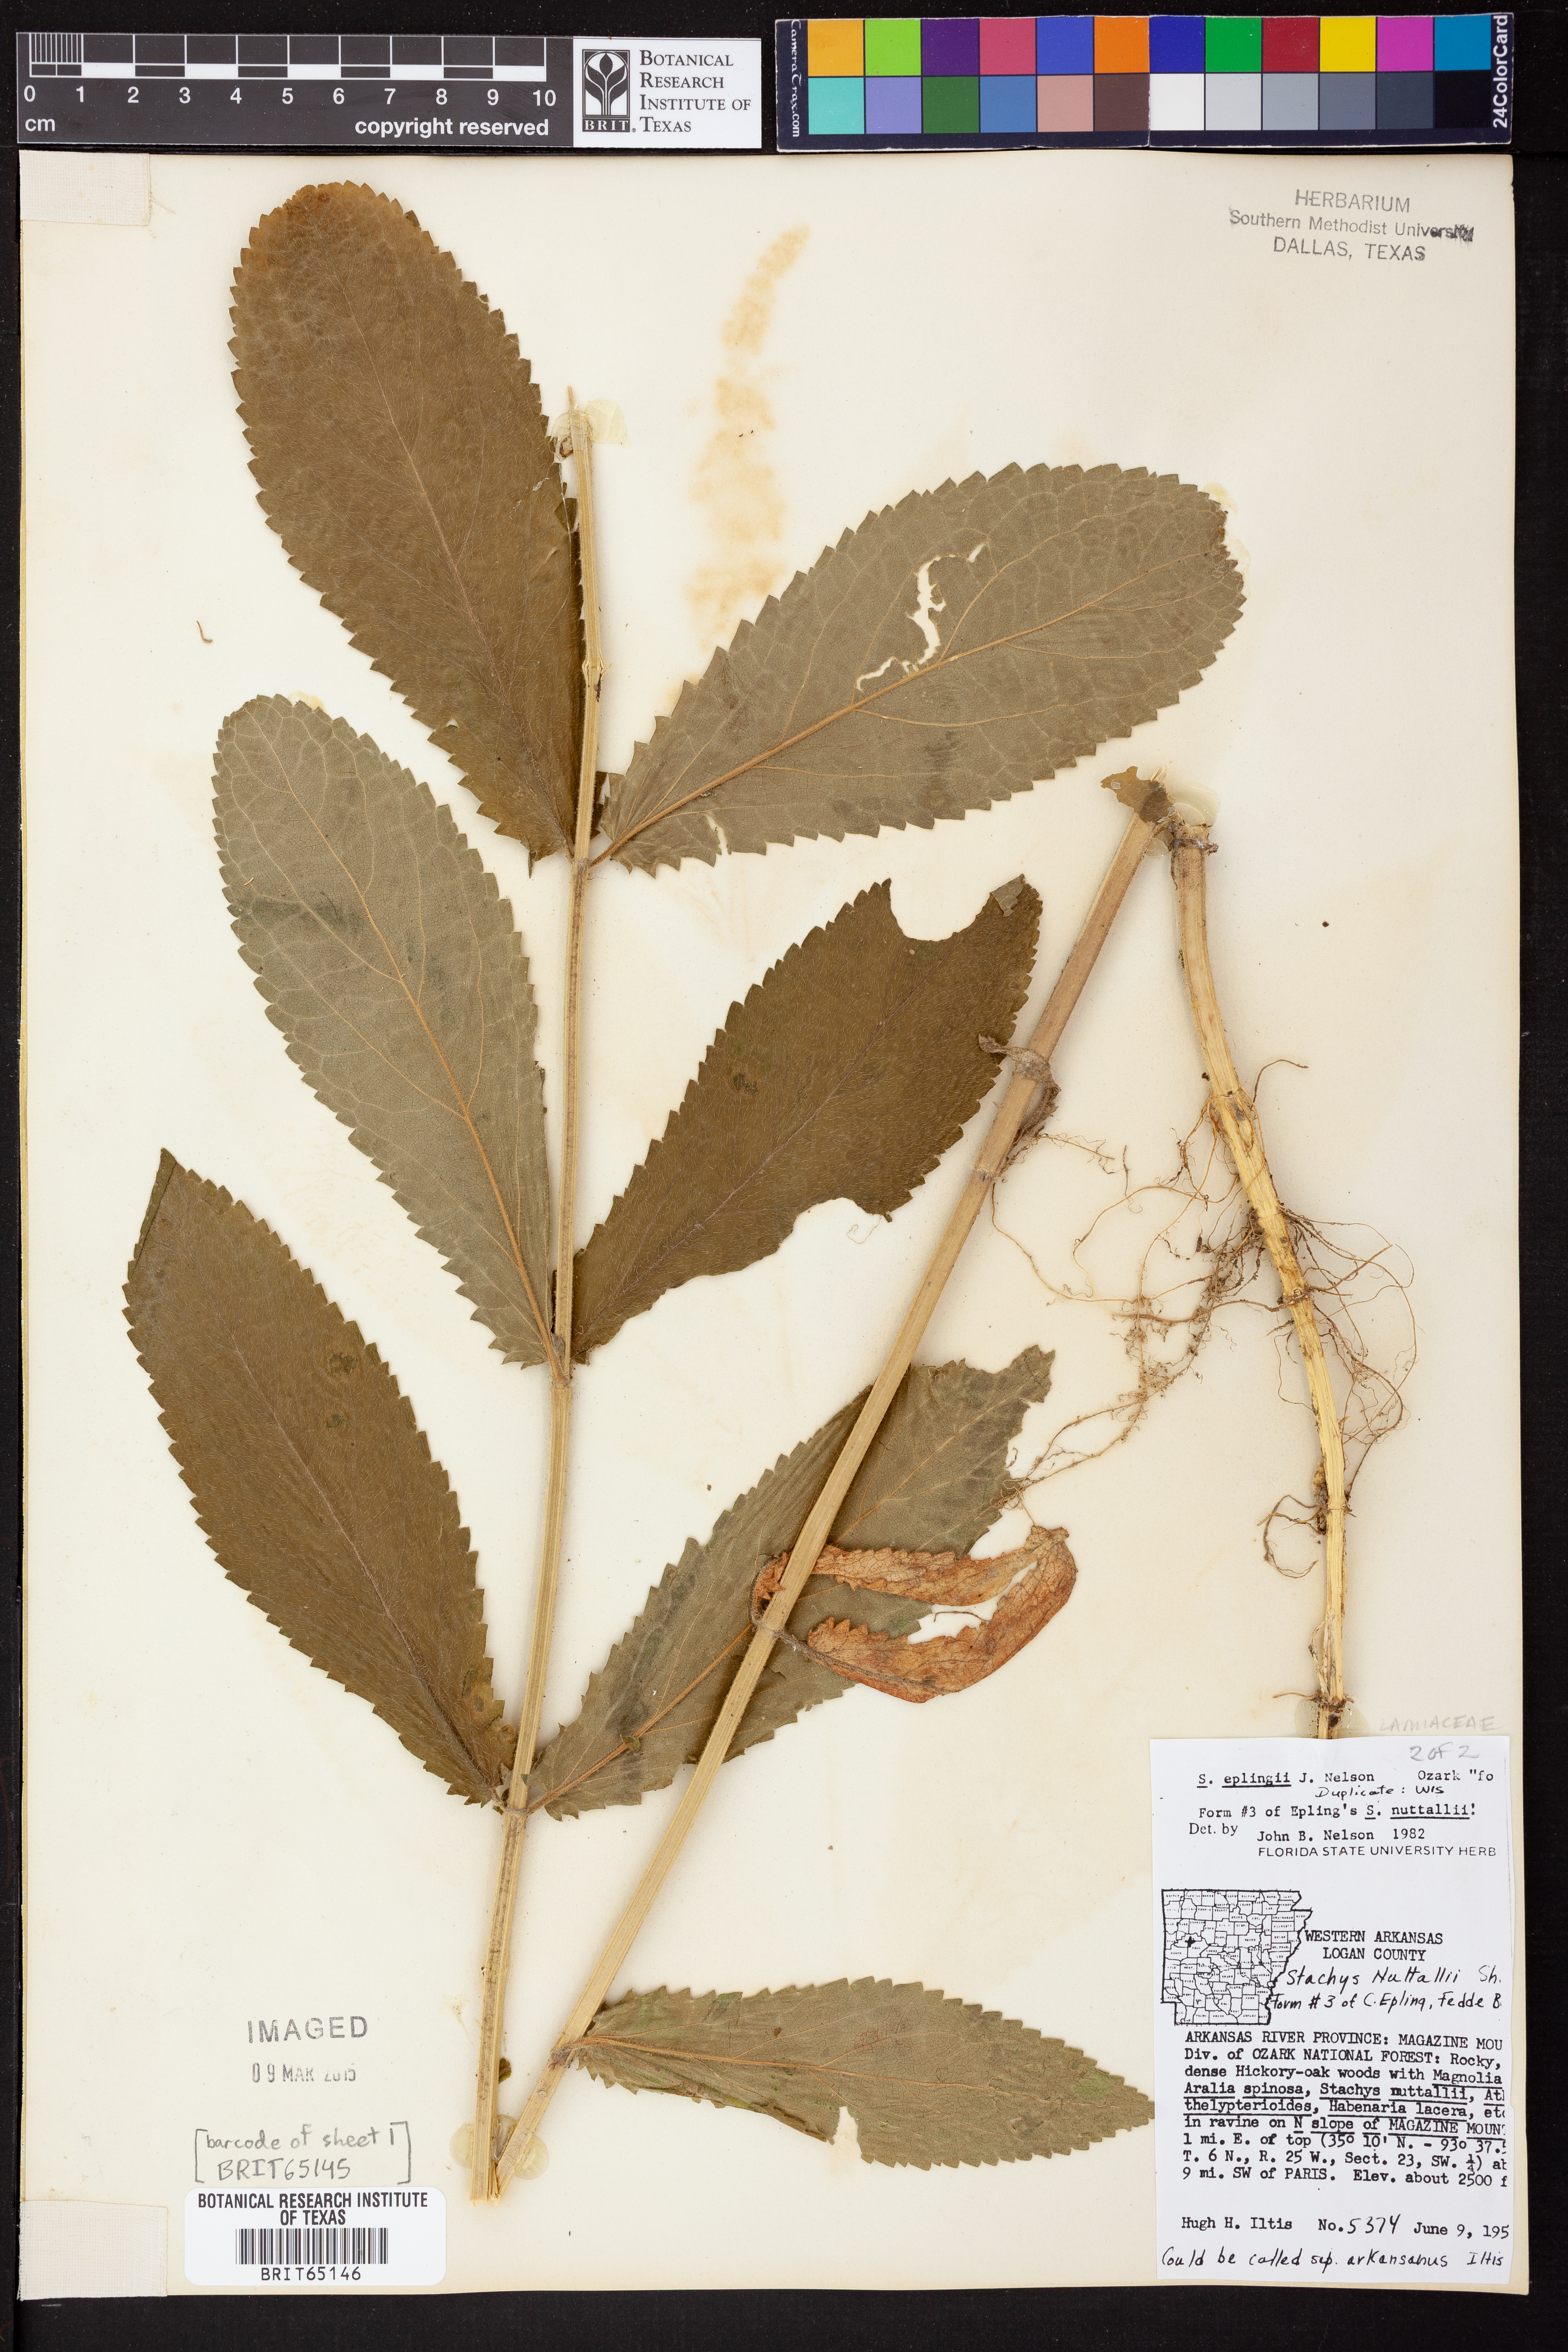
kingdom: Plantae
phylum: Tracheophyta
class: Magnoliopsida
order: Lamiales
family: Lamiaceae
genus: Stachys
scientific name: Stachys iltisii
